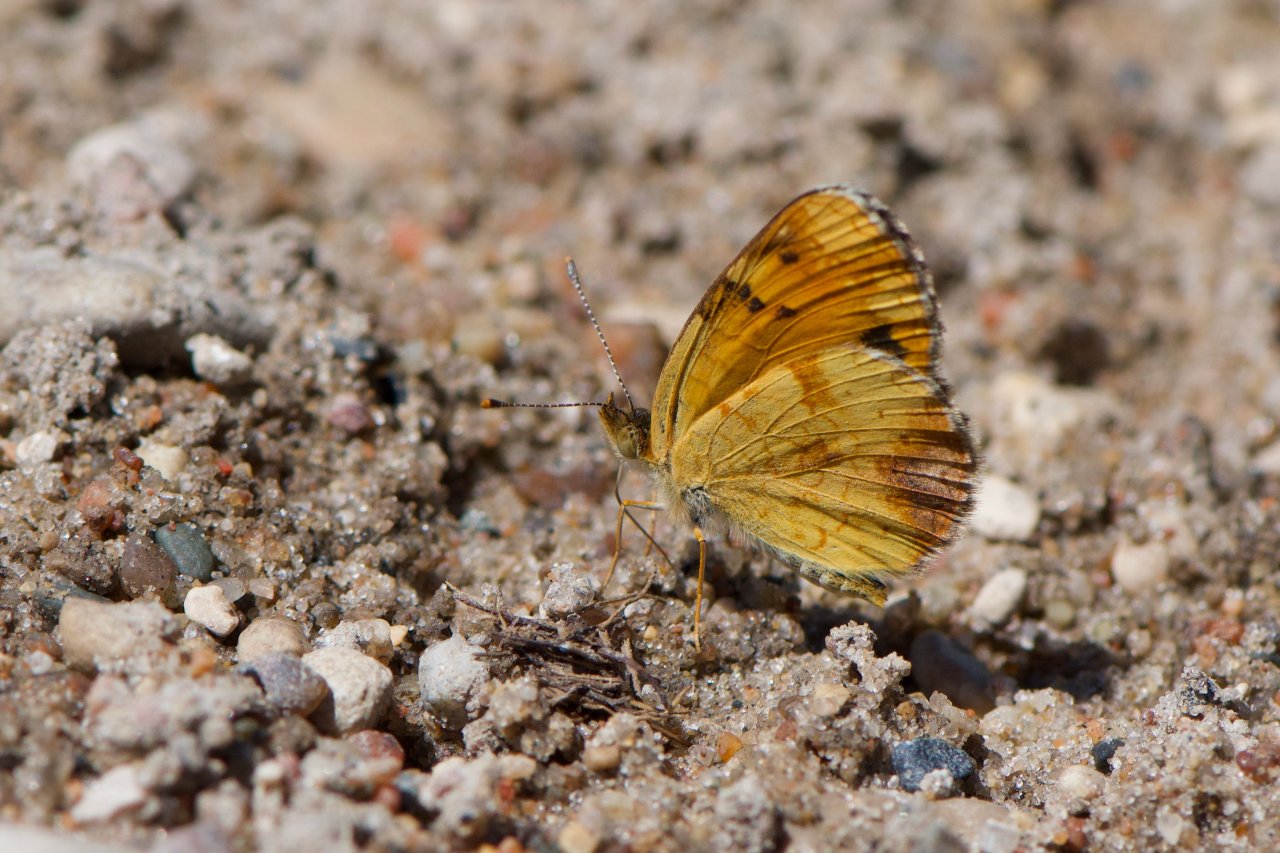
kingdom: Animalia
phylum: Arthropoda
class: Insecta
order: Lepidoptera
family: Nymphalidae
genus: Phyciodes
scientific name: Phyciodes tharos
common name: Northern Crescent
